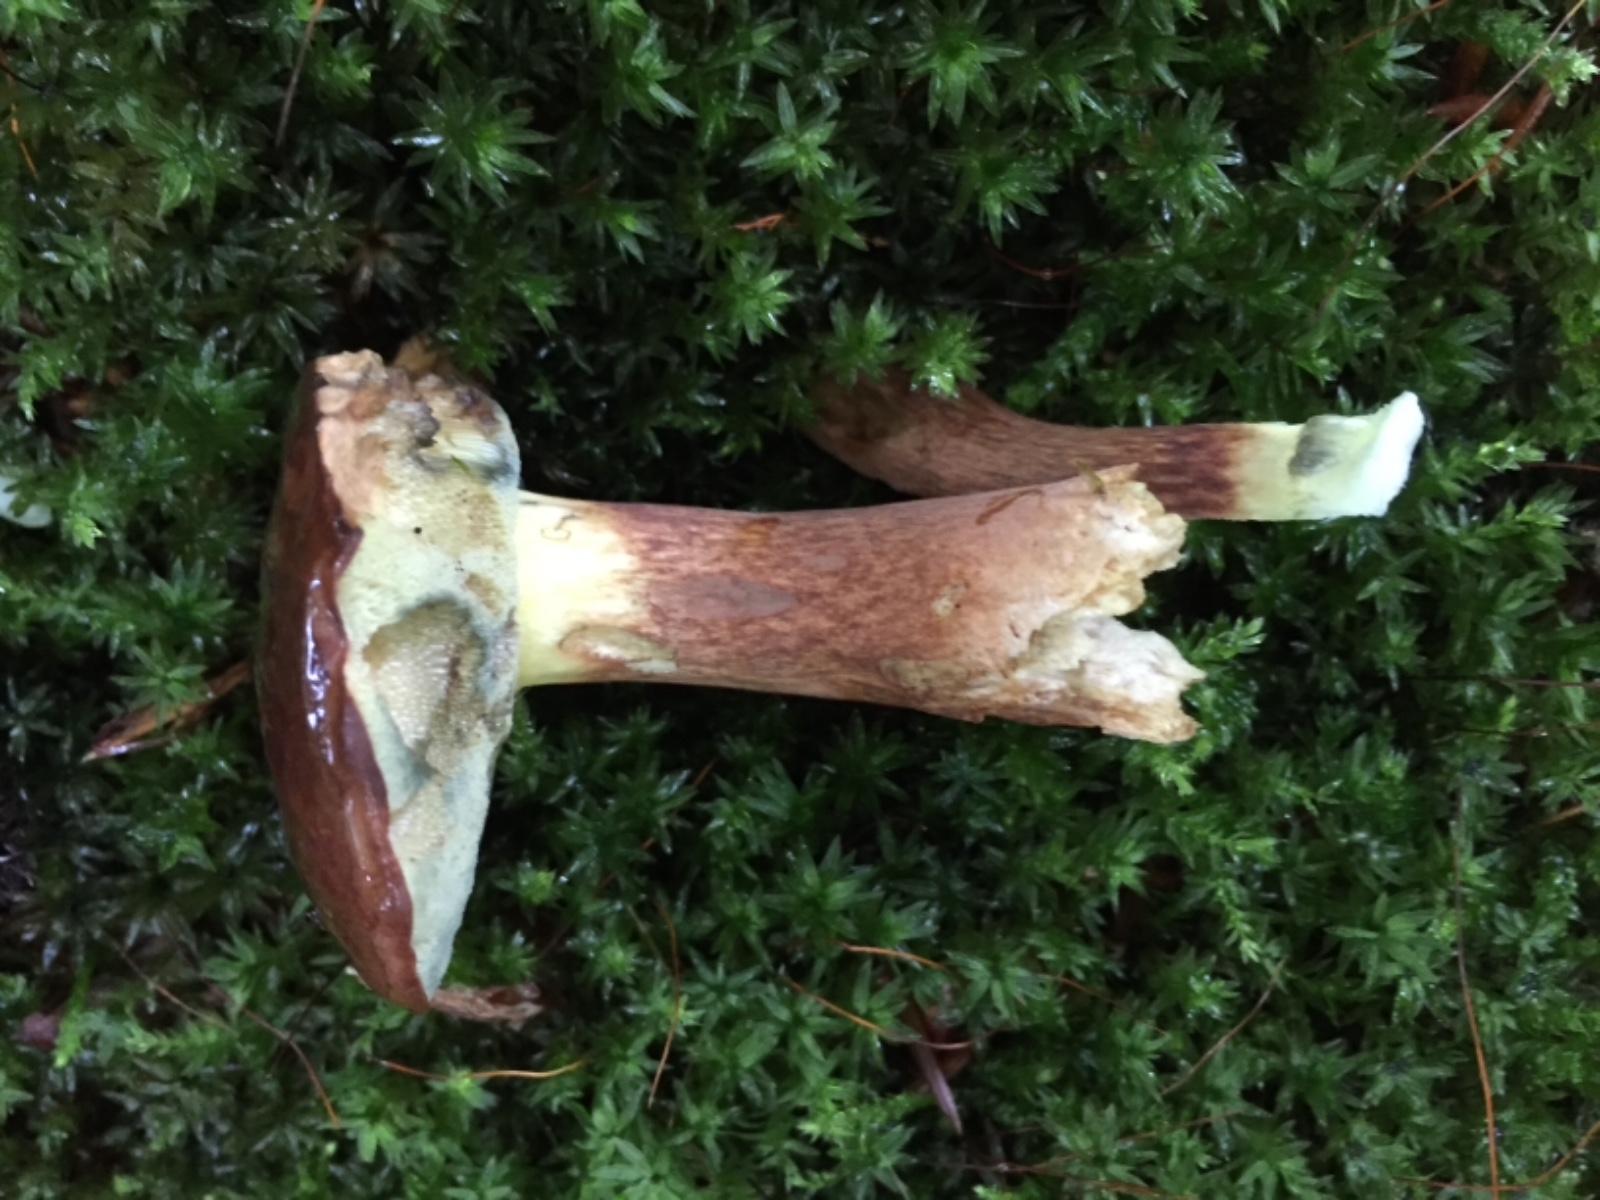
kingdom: Fungi
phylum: Basidiomycota
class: Agaricomycetes
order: Boletales
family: Boletaceae
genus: Imleria
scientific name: Imleria badia
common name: brunstokket rørhat
